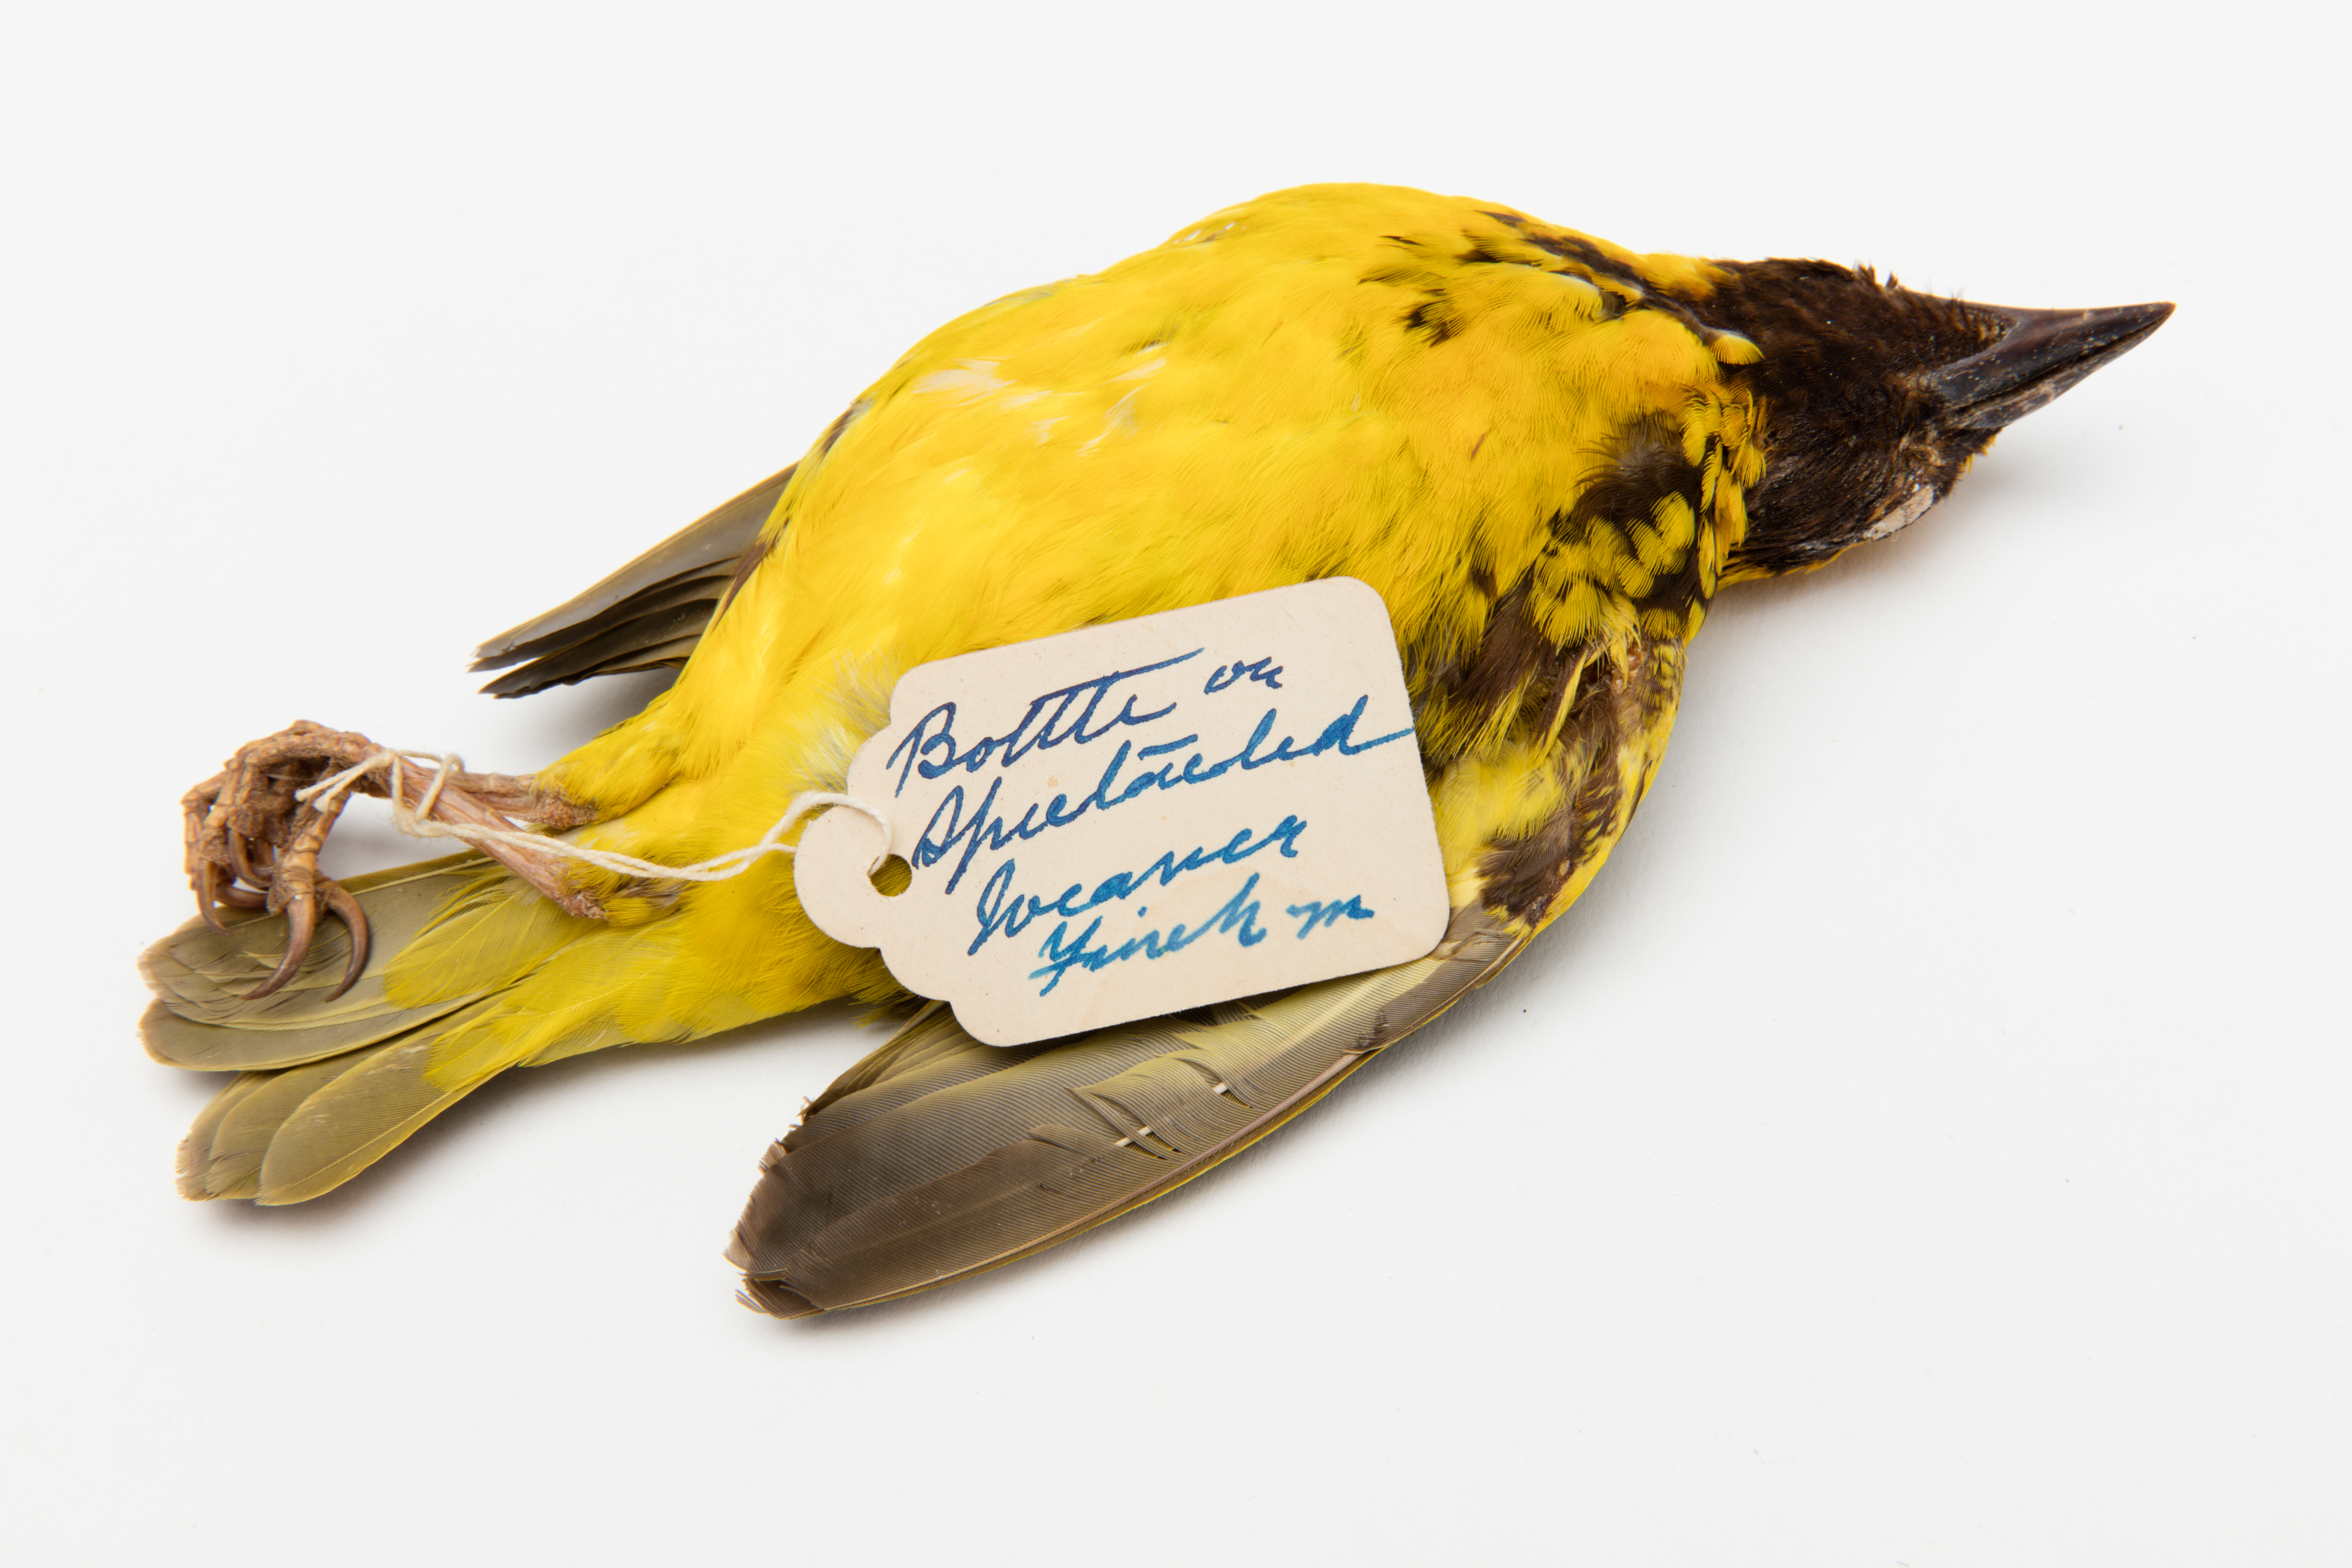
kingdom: Animalia
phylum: Chordata
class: Aves
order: Passeriformes
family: Ploceidae
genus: Ploceus
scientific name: Ploceus
